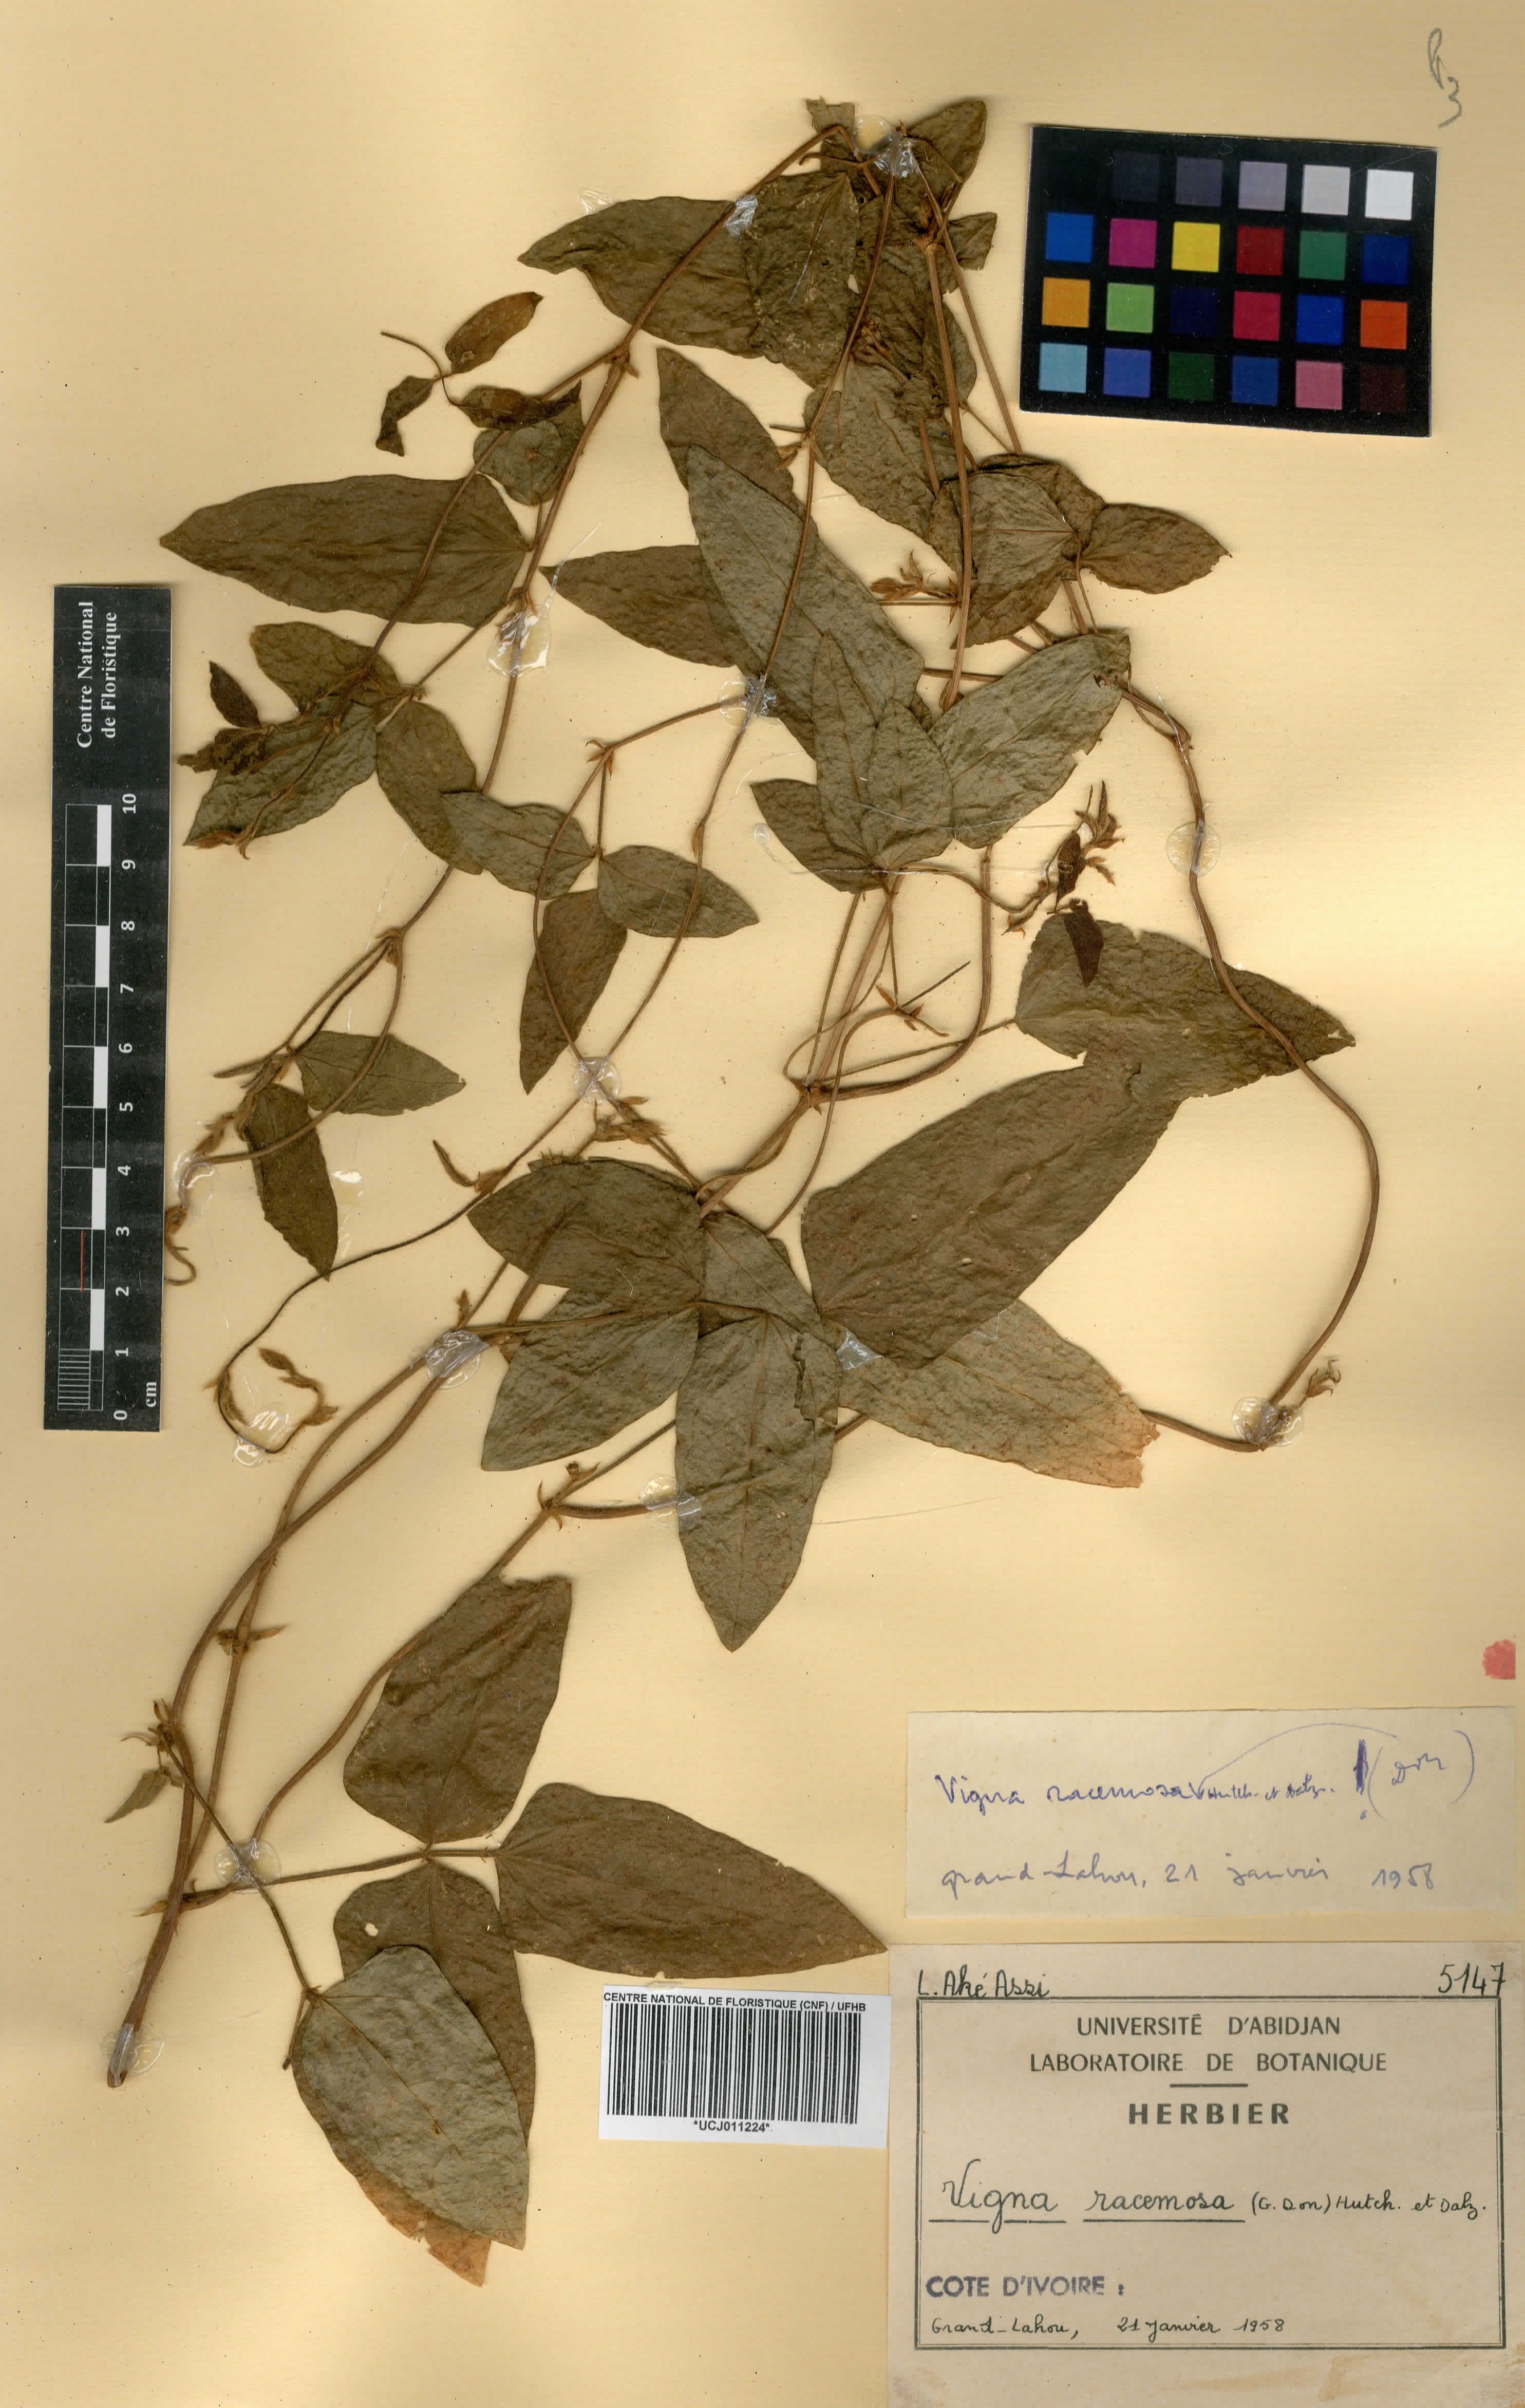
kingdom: Plantae
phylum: Tracheophyta
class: Magnoliopsida
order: Fabales
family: Fabaceae
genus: Vigna
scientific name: Vigna racemosa
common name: Beans not eaten
